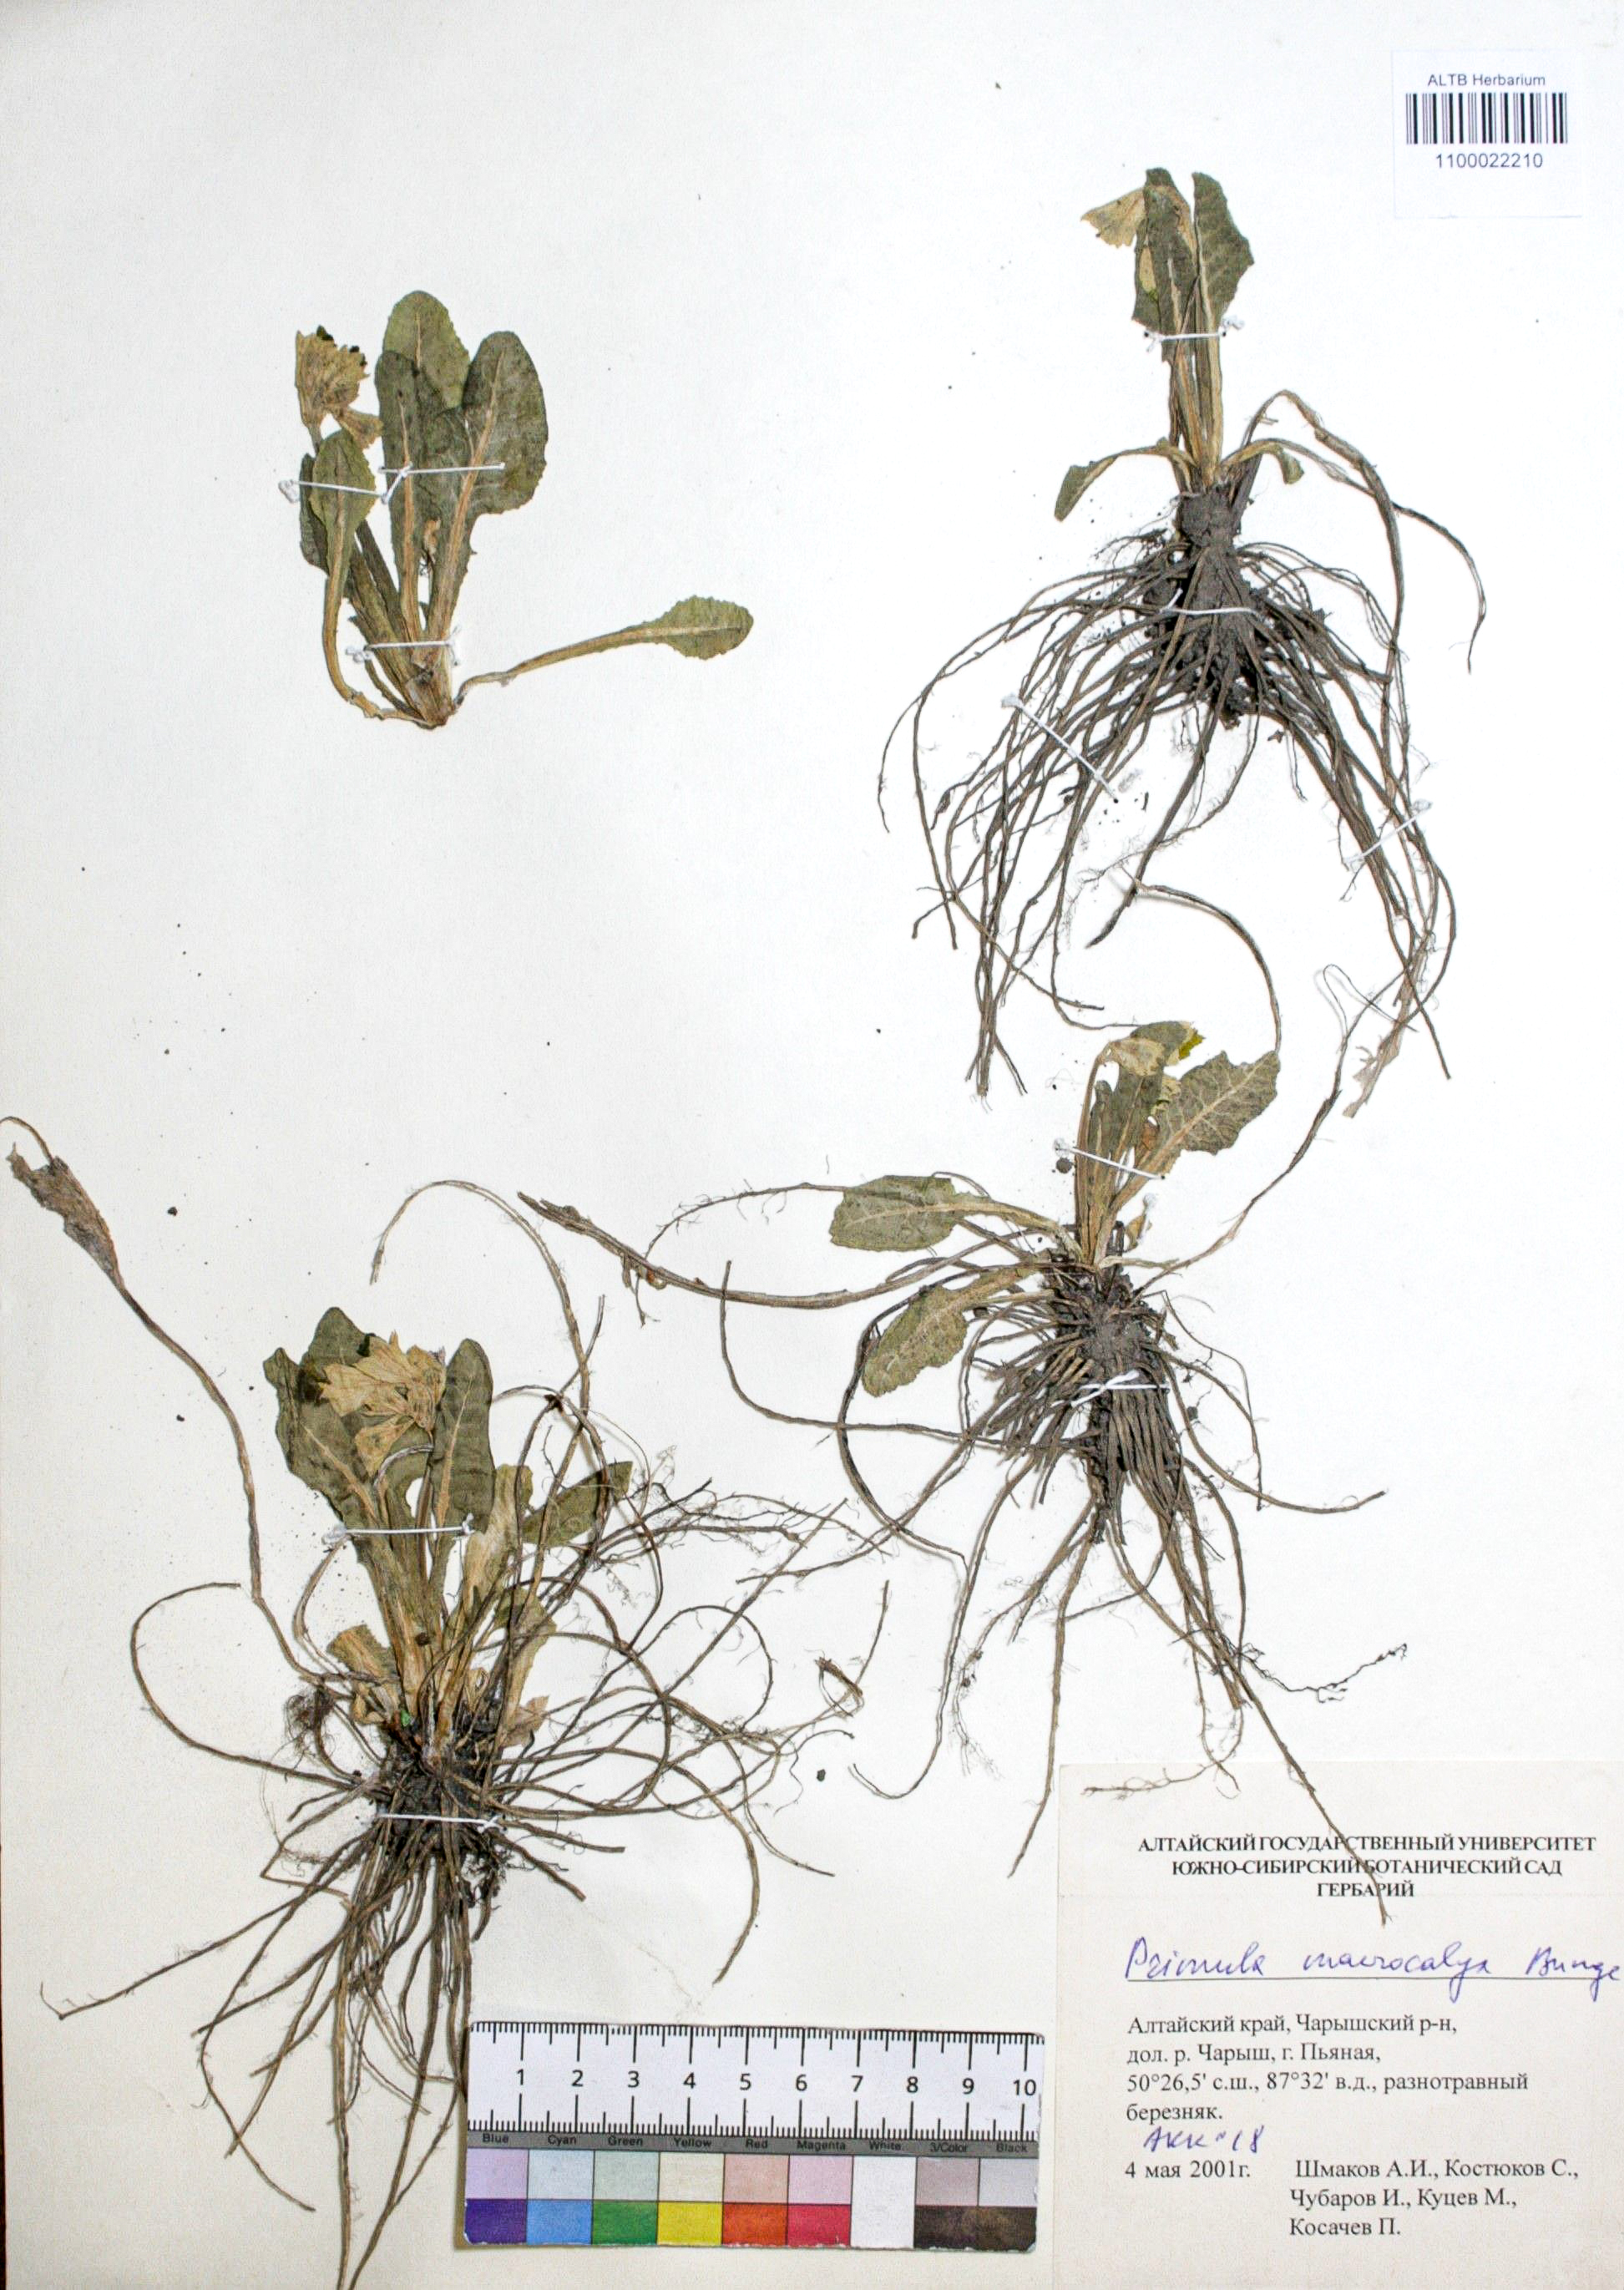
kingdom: Plantae
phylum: Tracheophyta
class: Magnoliopsida
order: Ericales
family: Primulaceae
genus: Primula
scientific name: Primula veris
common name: Cowslip
